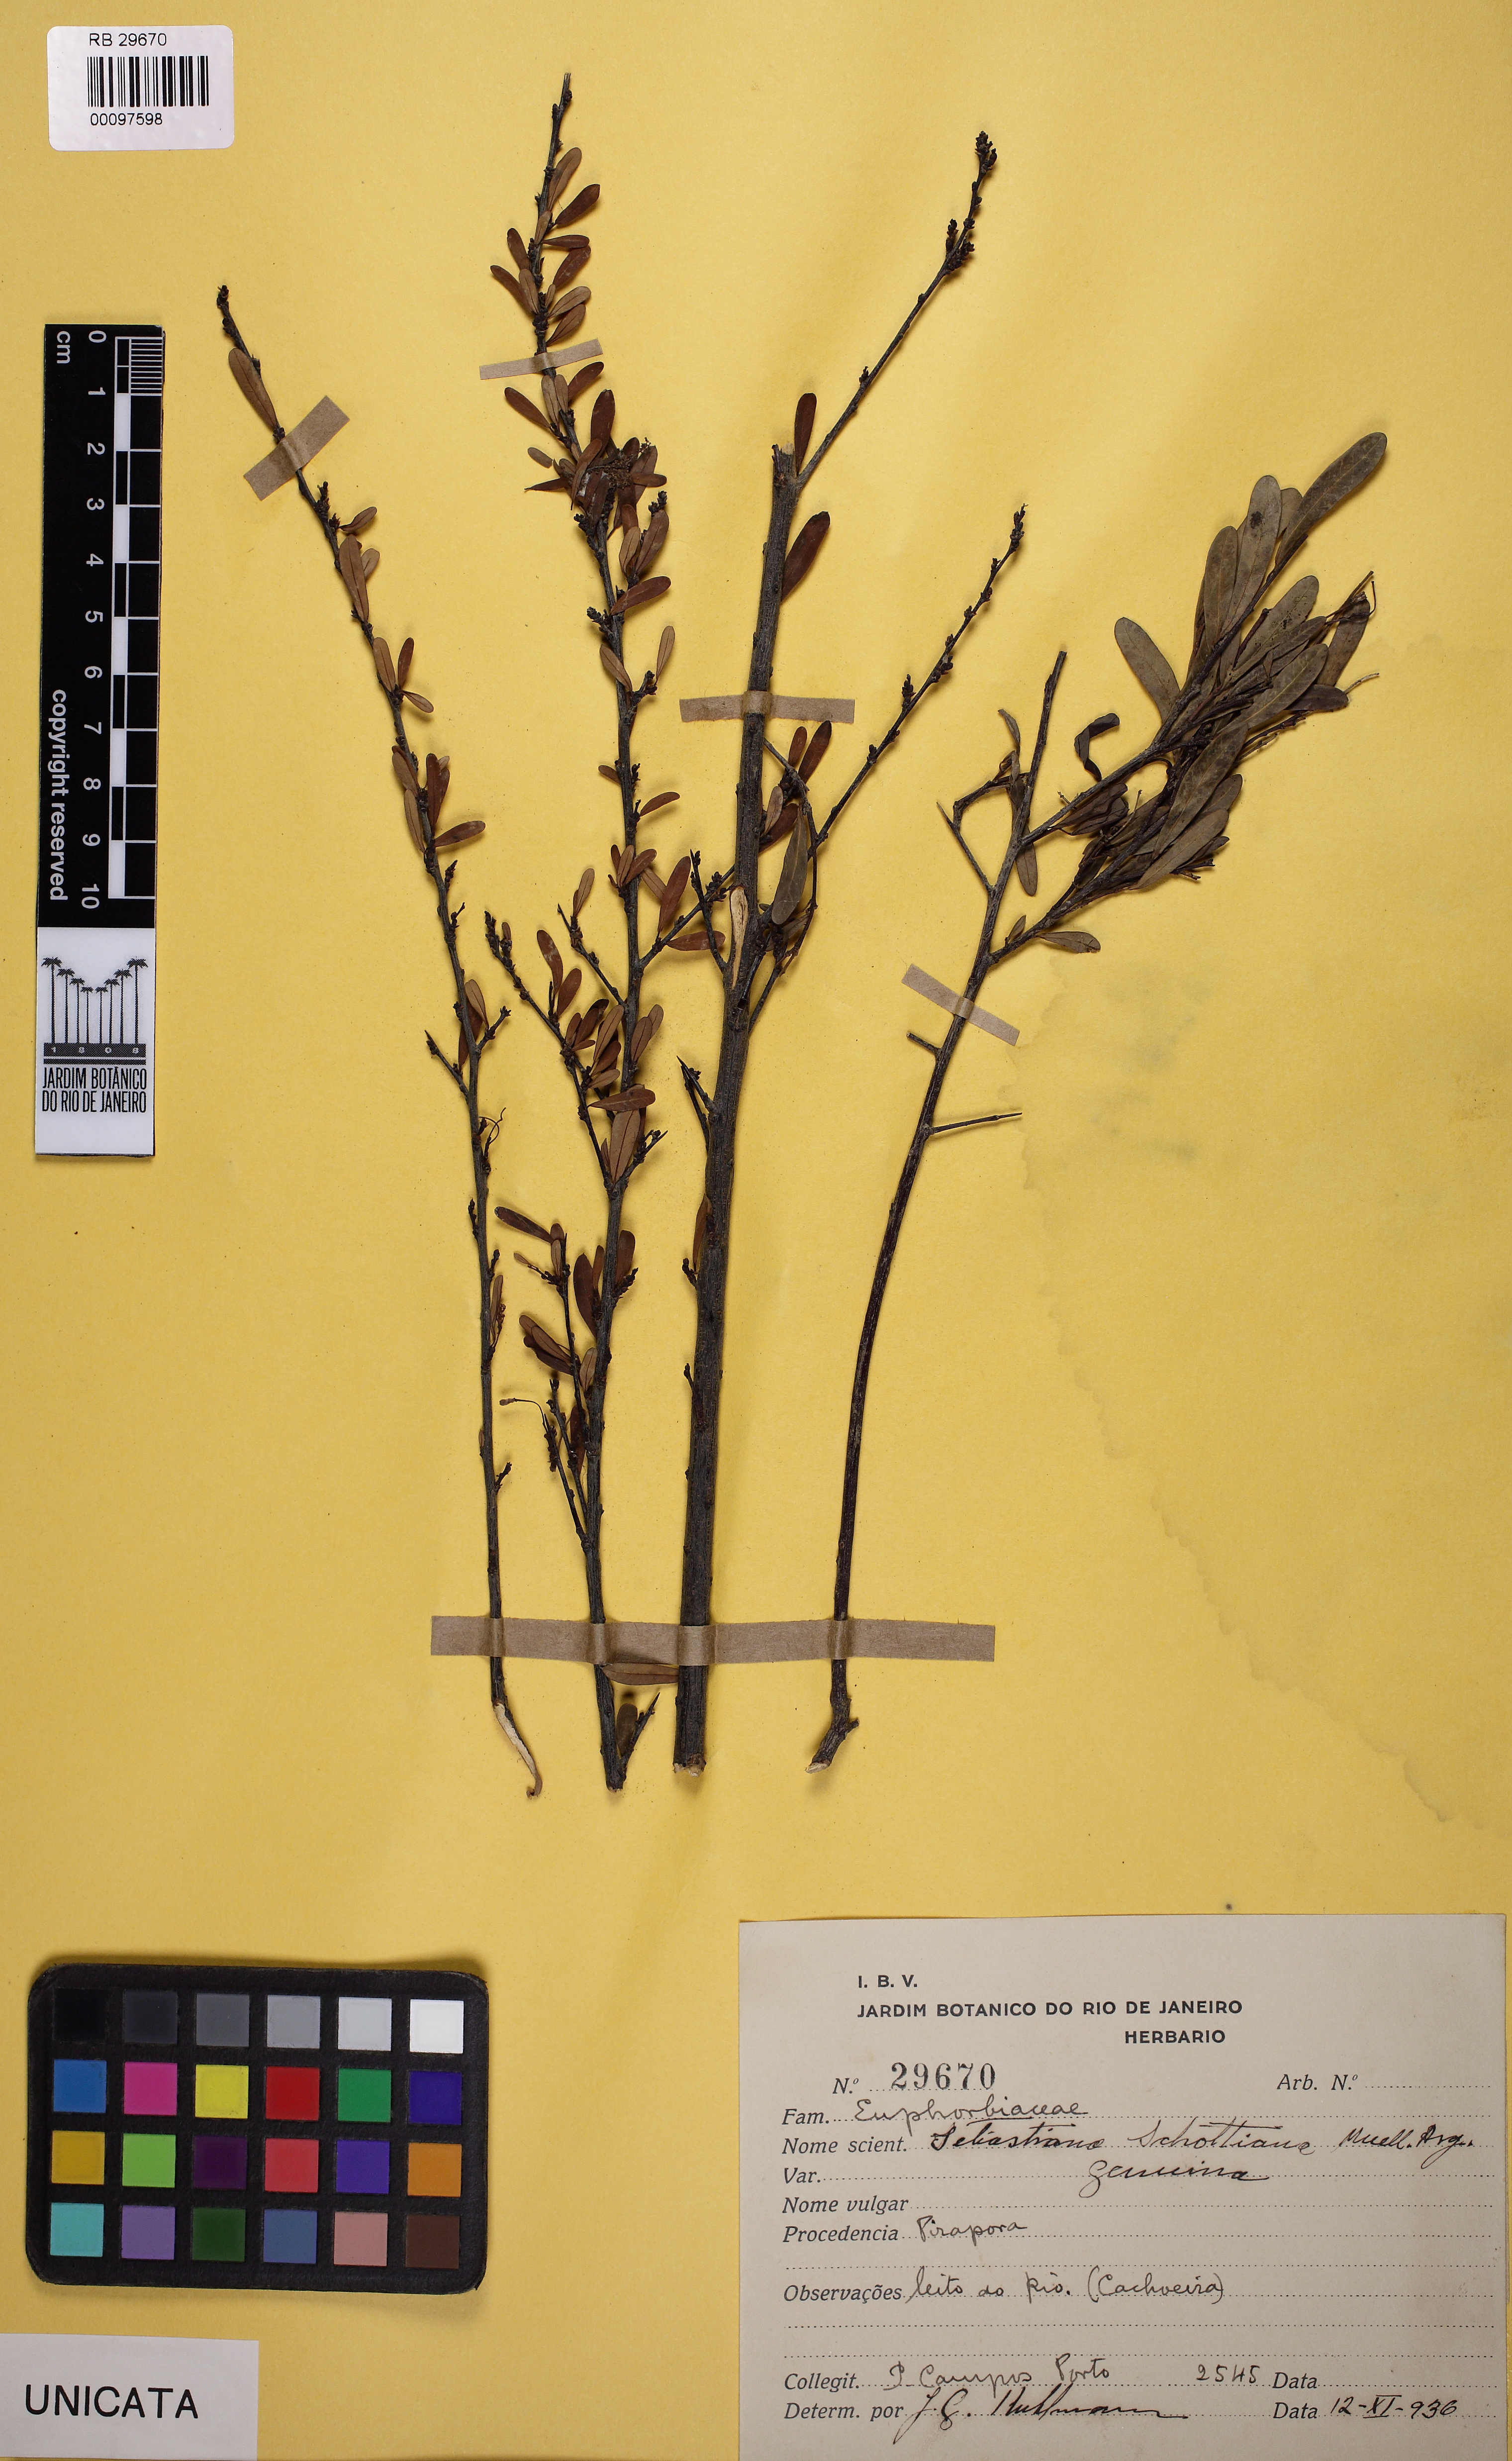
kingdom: Plantae
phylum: Tracheophyta
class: Magnoliopsida
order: Malpighiales
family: Euphorbiaceae
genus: Sebastiania
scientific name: Sebastiania schottiana
